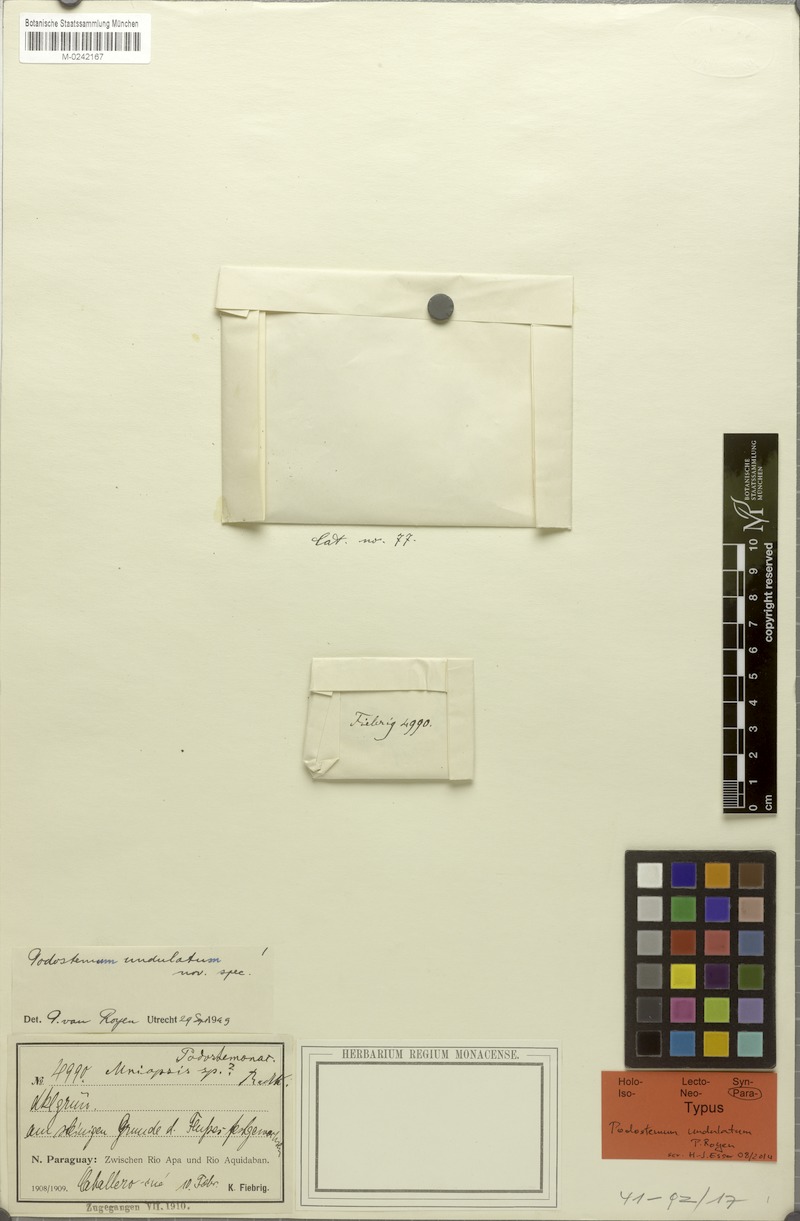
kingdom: Plantae
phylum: Tracheophyta
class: Magnoliopsida
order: Malpighiales
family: Podostemaceae
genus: Podostemum
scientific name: Podostemum comatum
